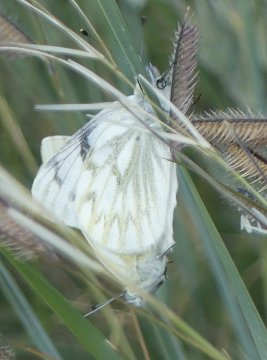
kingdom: Animalia
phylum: Arthropoda
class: Insecta
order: Lepidoptera
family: Pieridae
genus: Pontia
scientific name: Pontia occidentalis
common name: Western White
